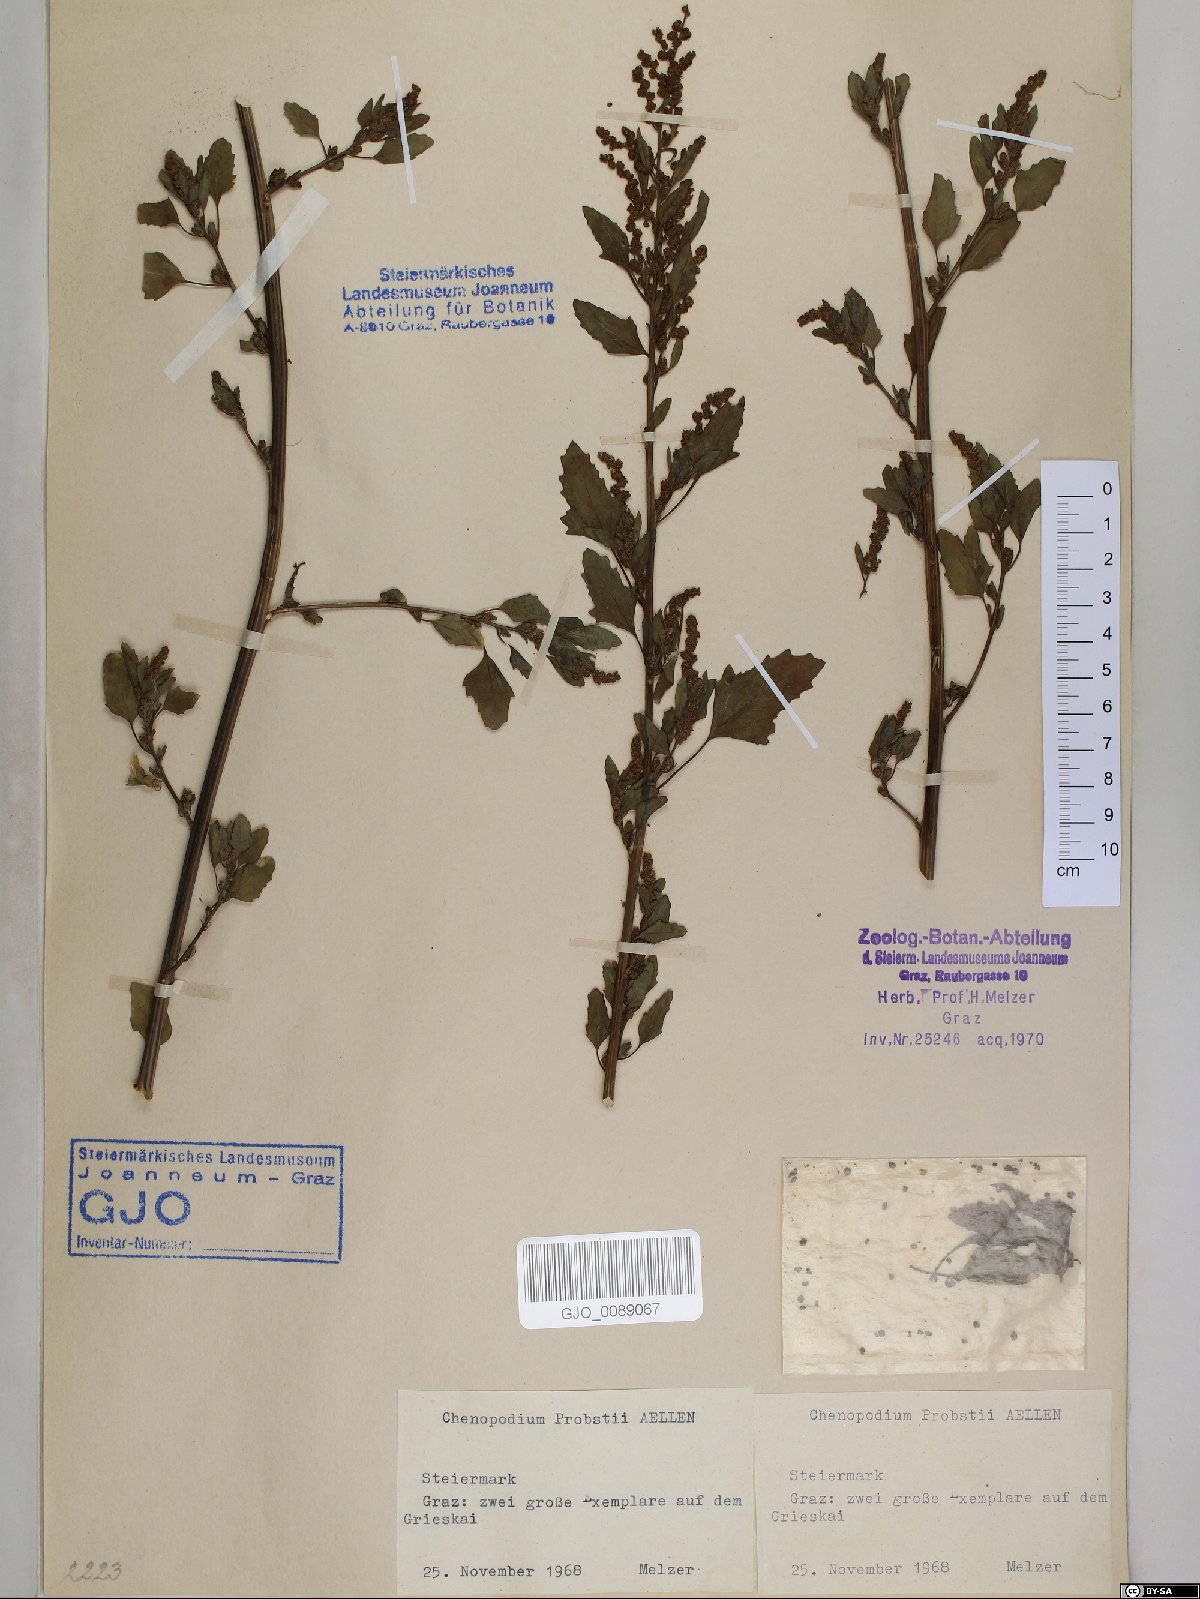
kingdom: Plantae
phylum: Tracheophyta
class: Magnoliopsida
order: Caryophyllales
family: Amaranthaceae
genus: Chenopodium
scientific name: Chenopodium probstii
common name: Probst's goosefoot
